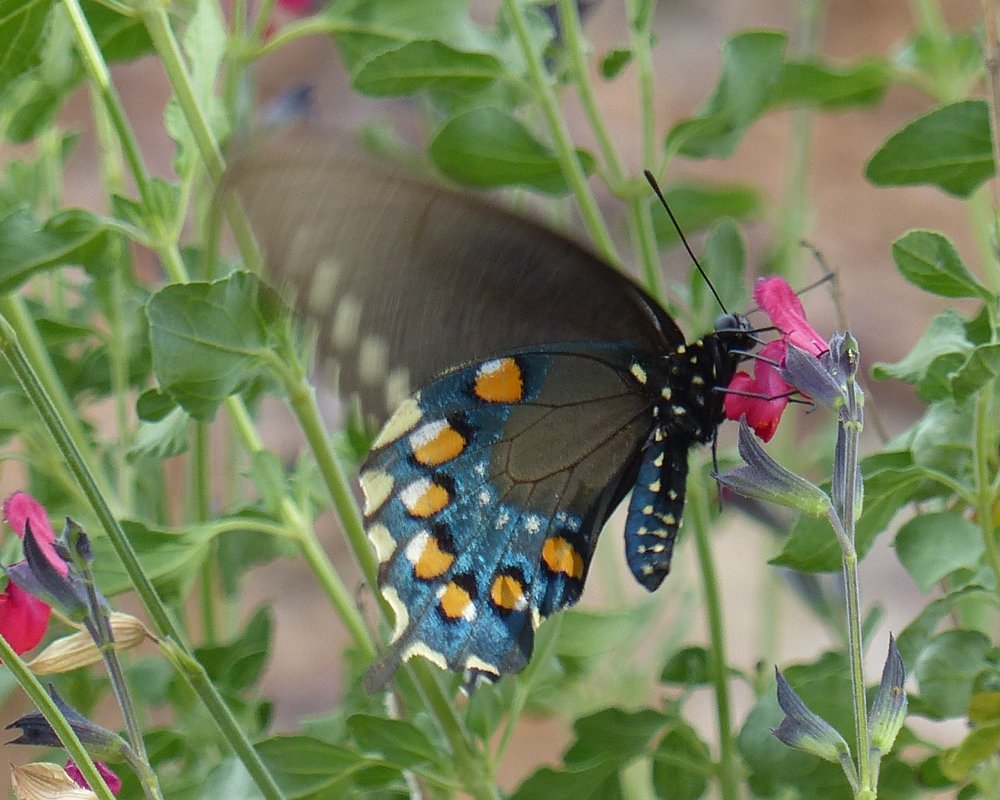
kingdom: Animalia
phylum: Arthropoda
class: Insecta
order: Lepidoptera
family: Papilionidae
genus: Battus
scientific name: Battus philenor
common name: Pipevine Swallowtail
